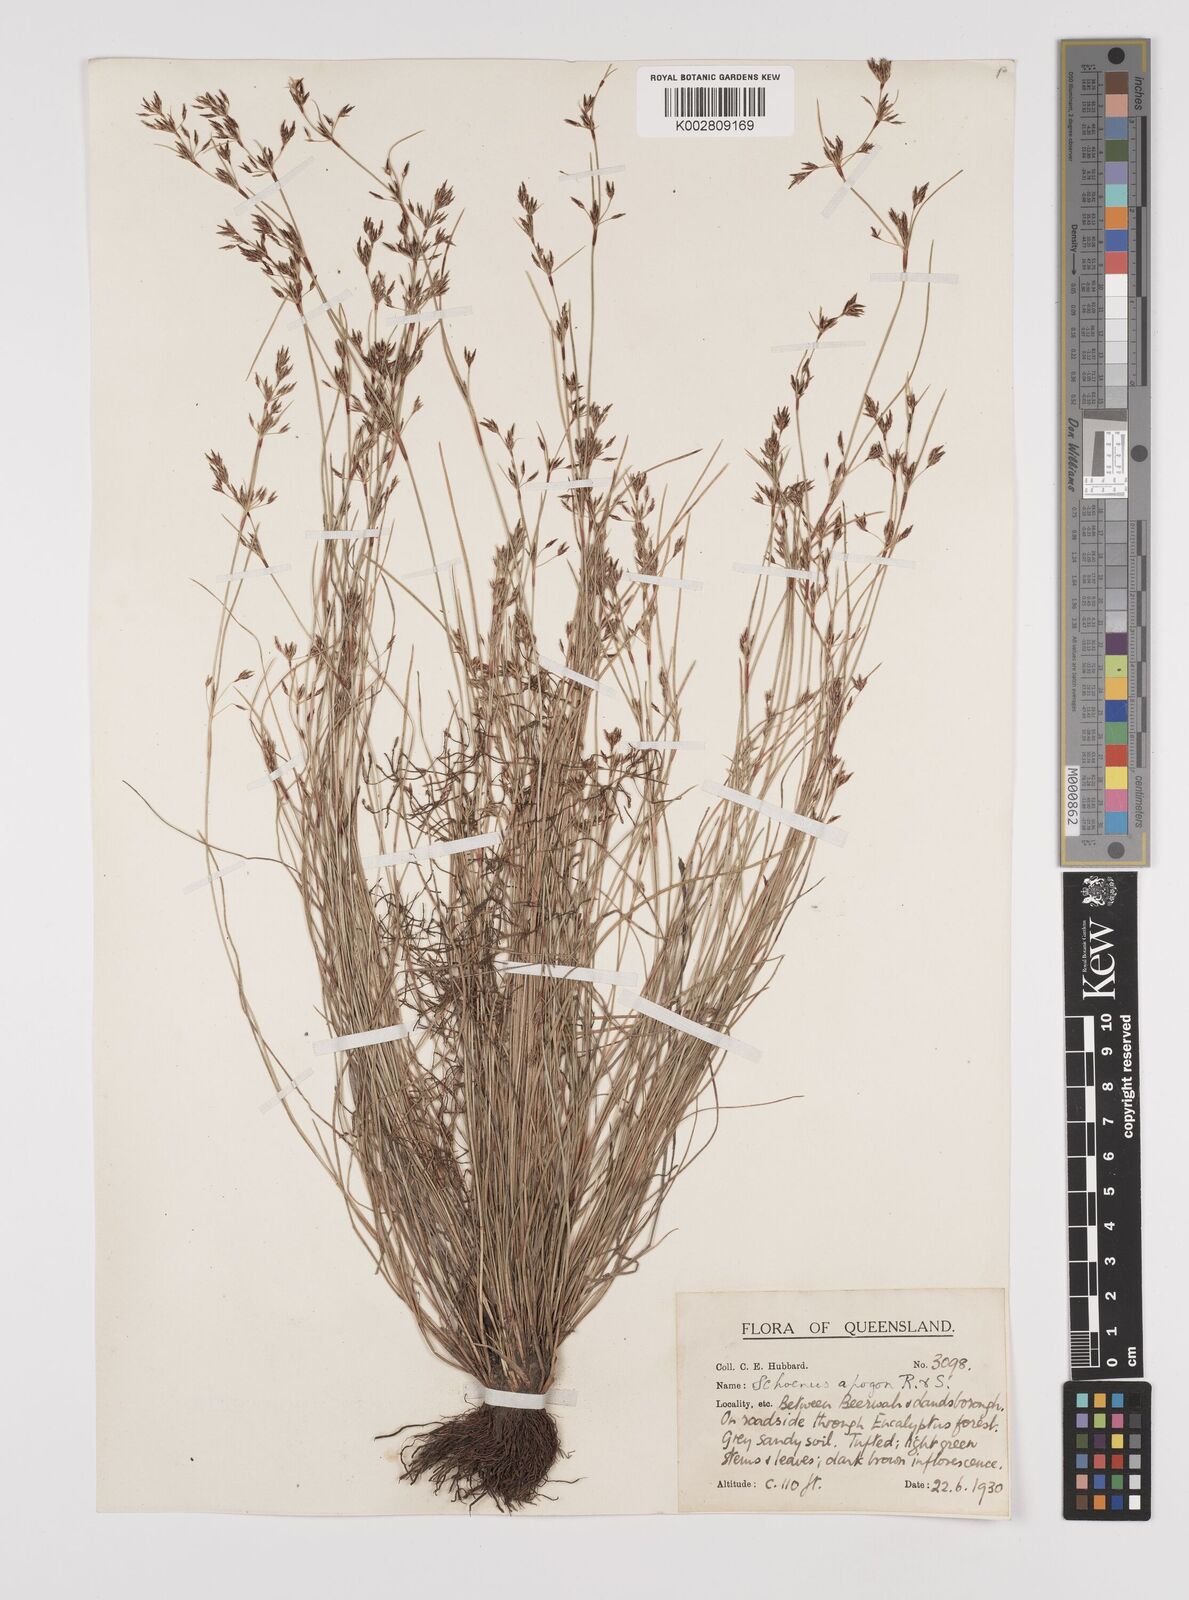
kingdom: Plantae
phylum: Tracheophyta
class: Liliopsida
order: Poales
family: Cyperaceae
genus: Schoenus
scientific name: Schoenus apogon
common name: Smooth bogrush
